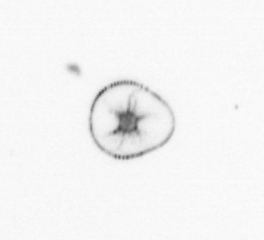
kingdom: Chromista
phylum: Myzozoa
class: Dinophyceae
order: Noctilucales
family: Noctilucaceae
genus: Noctiluca
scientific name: Noctiluca scintillans
